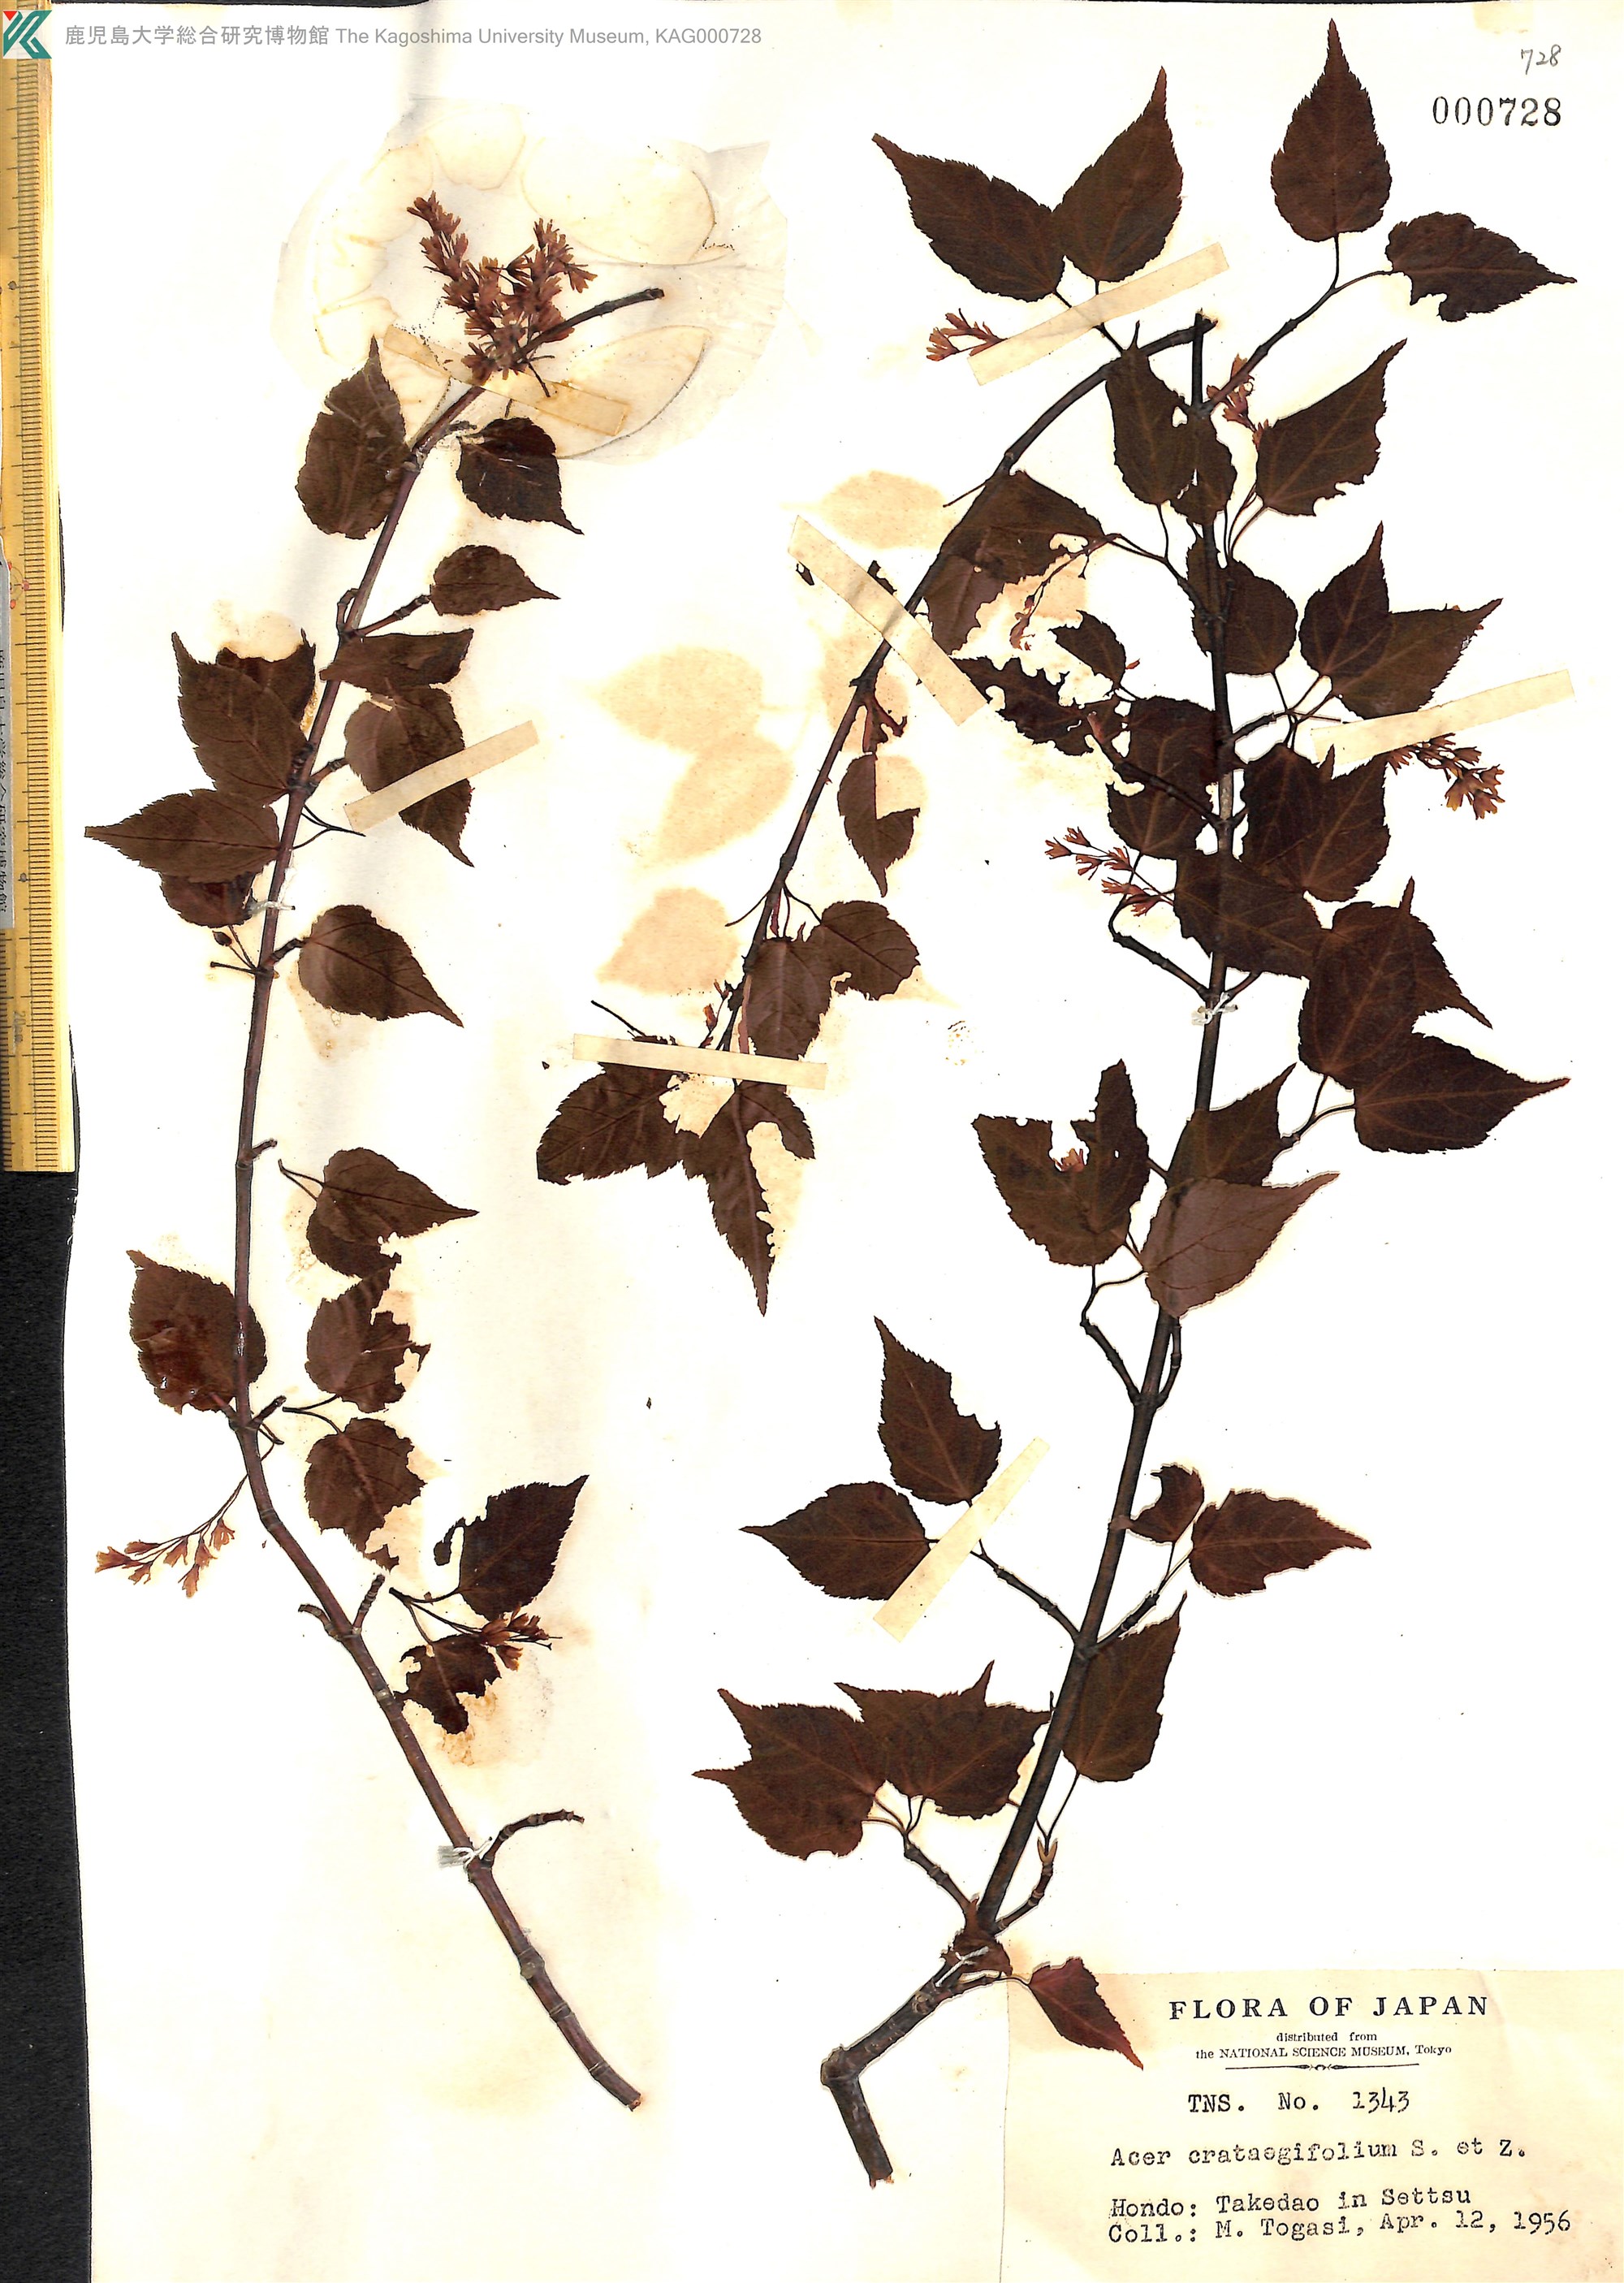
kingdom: Plantae
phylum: Tracheophyta
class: Magnoliopsida
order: Sapindales
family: Sapindaceae
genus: Acer
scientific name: Acer crataegifolium
